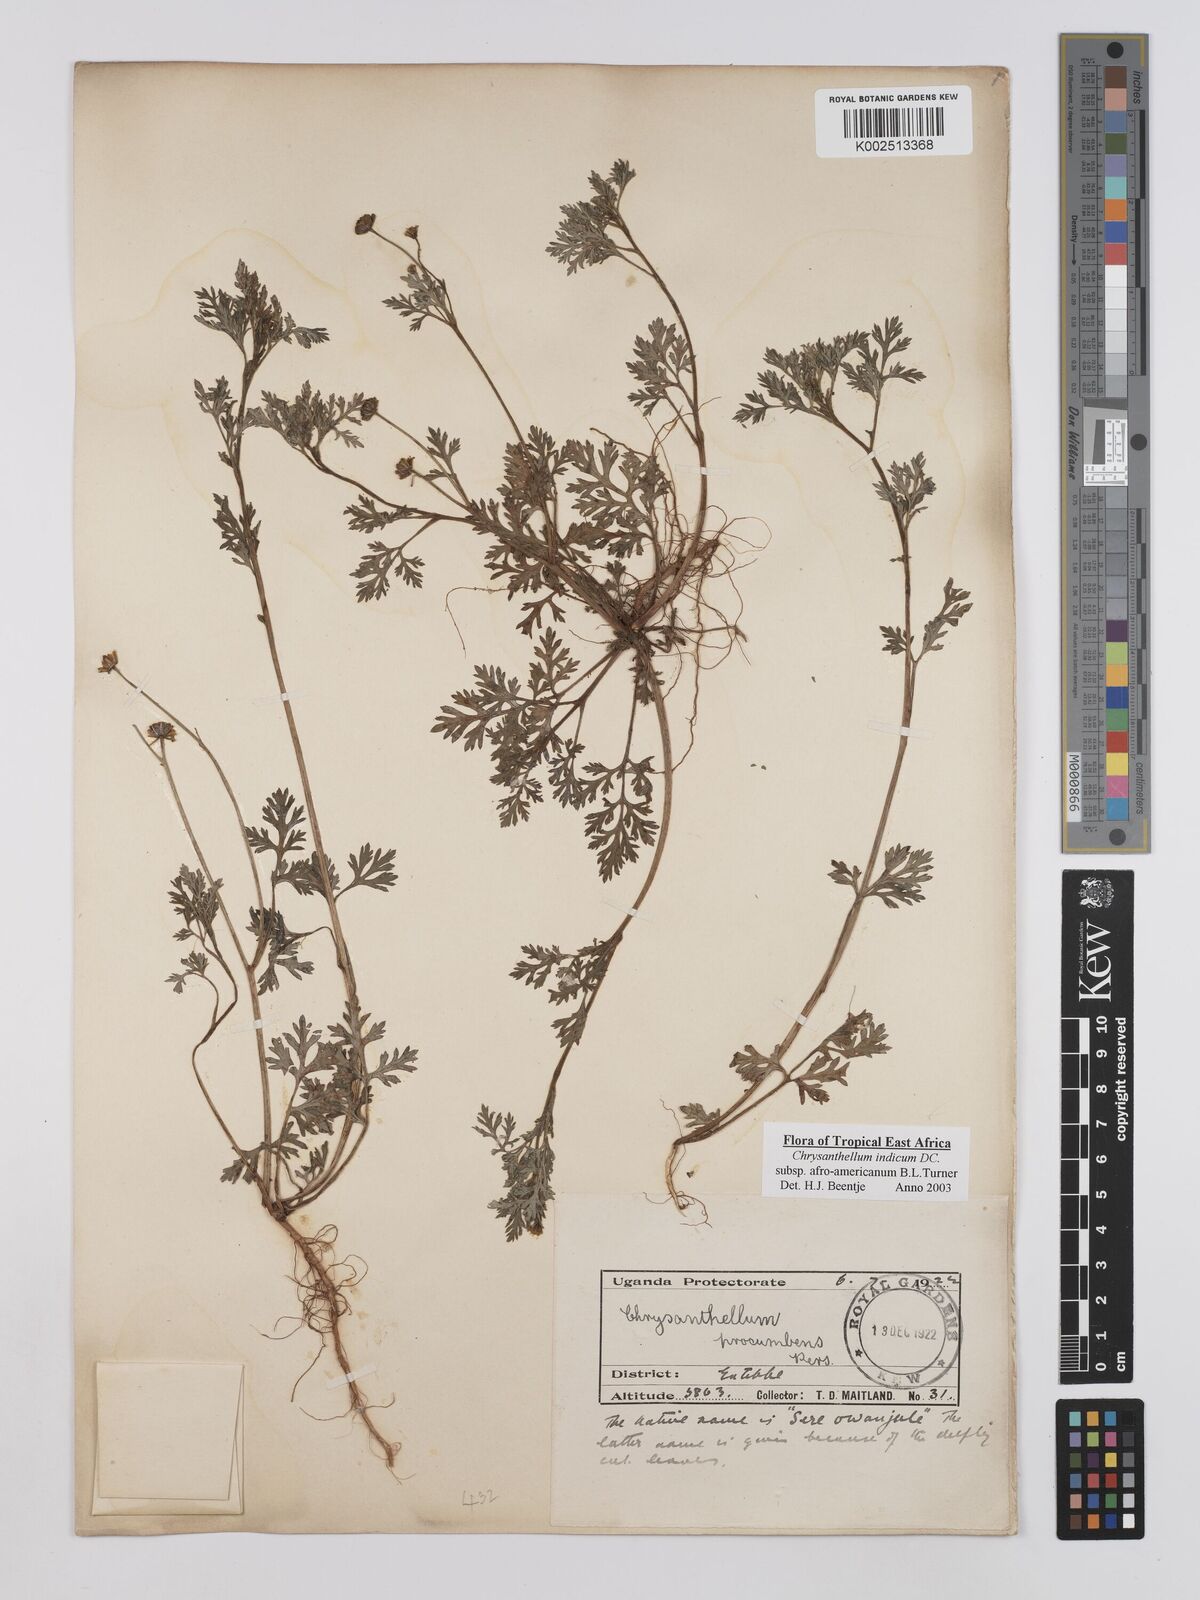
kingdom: Plantae
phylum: Tracheophyta
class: Magnoliopsida
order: Asterales
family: Asteraceae
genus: Chrysanthellum
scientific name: Chrysanthellum indicum
